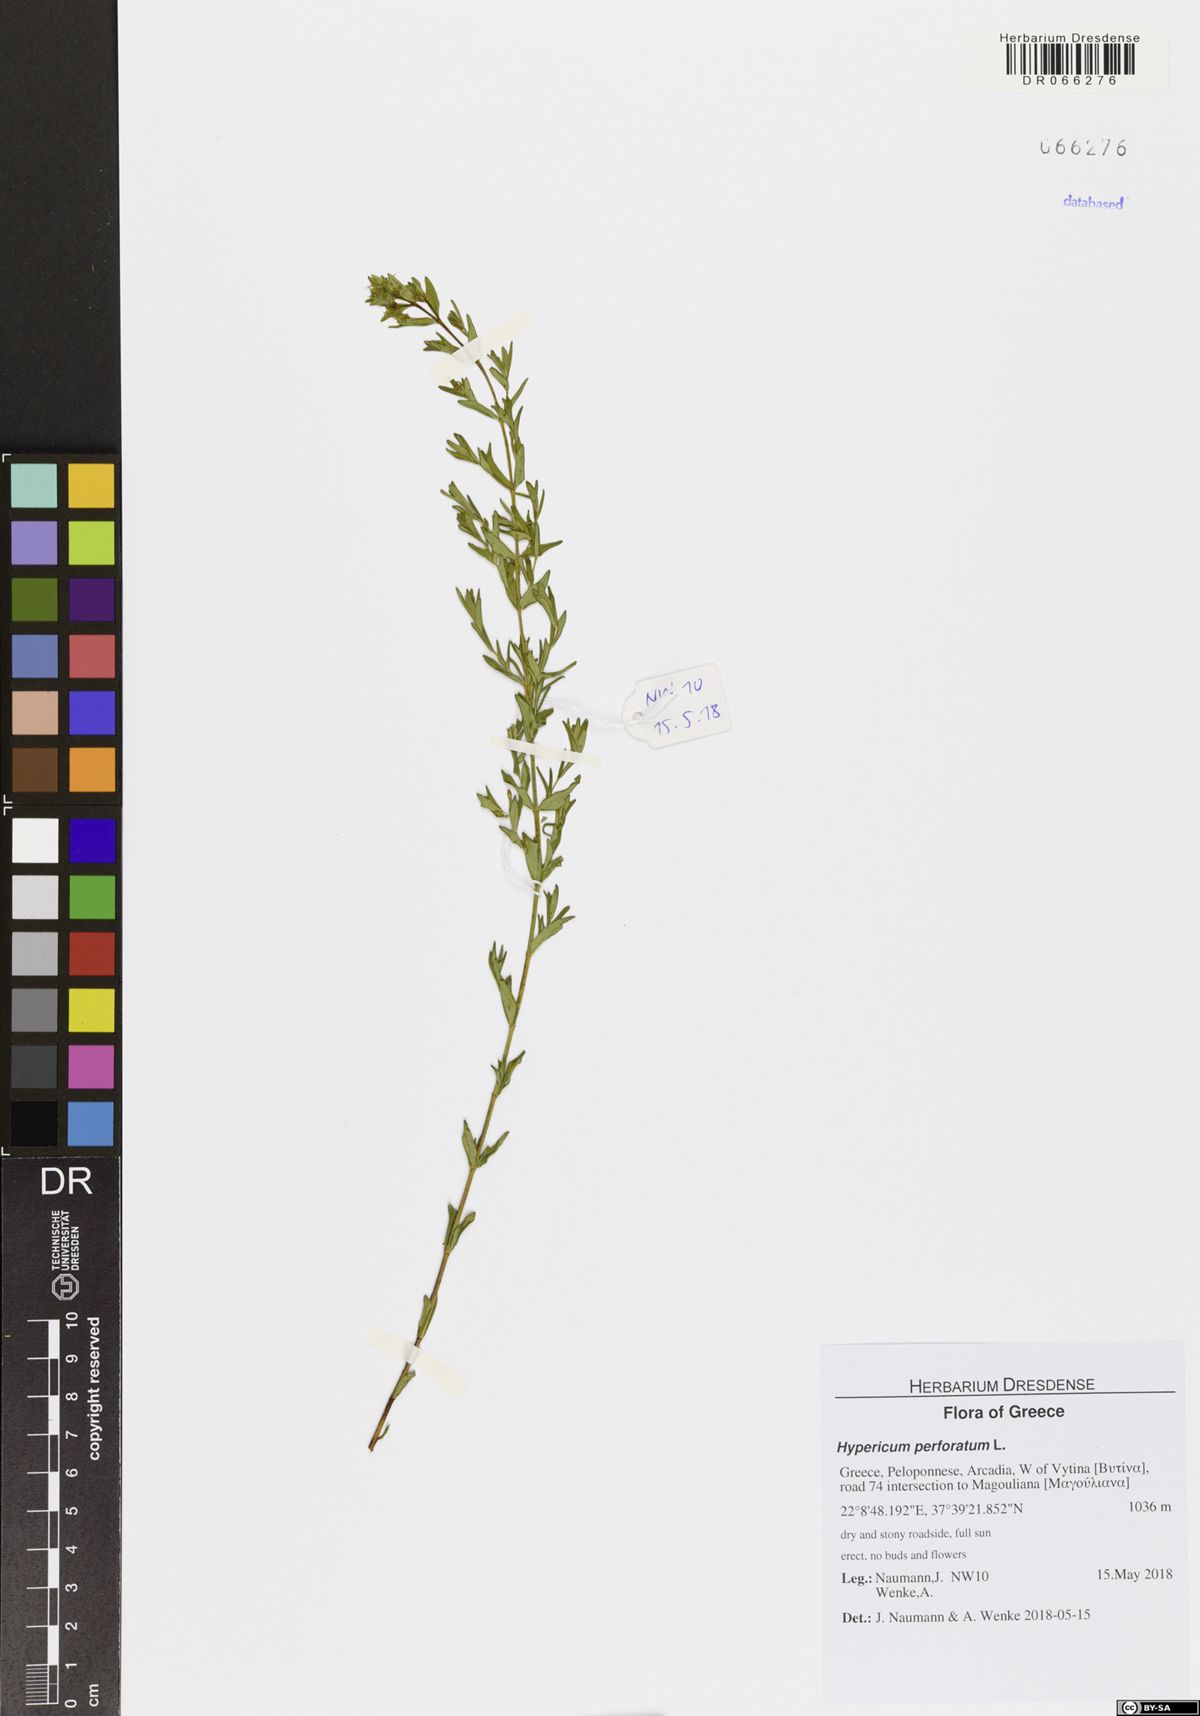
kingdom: Plantae
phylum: Tracheophyta
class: Magnoliopsida
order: Malpighiales
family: Hypericaceae
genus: Hypericum
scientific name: Hypericum perforatum
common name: Common st. johnswort
